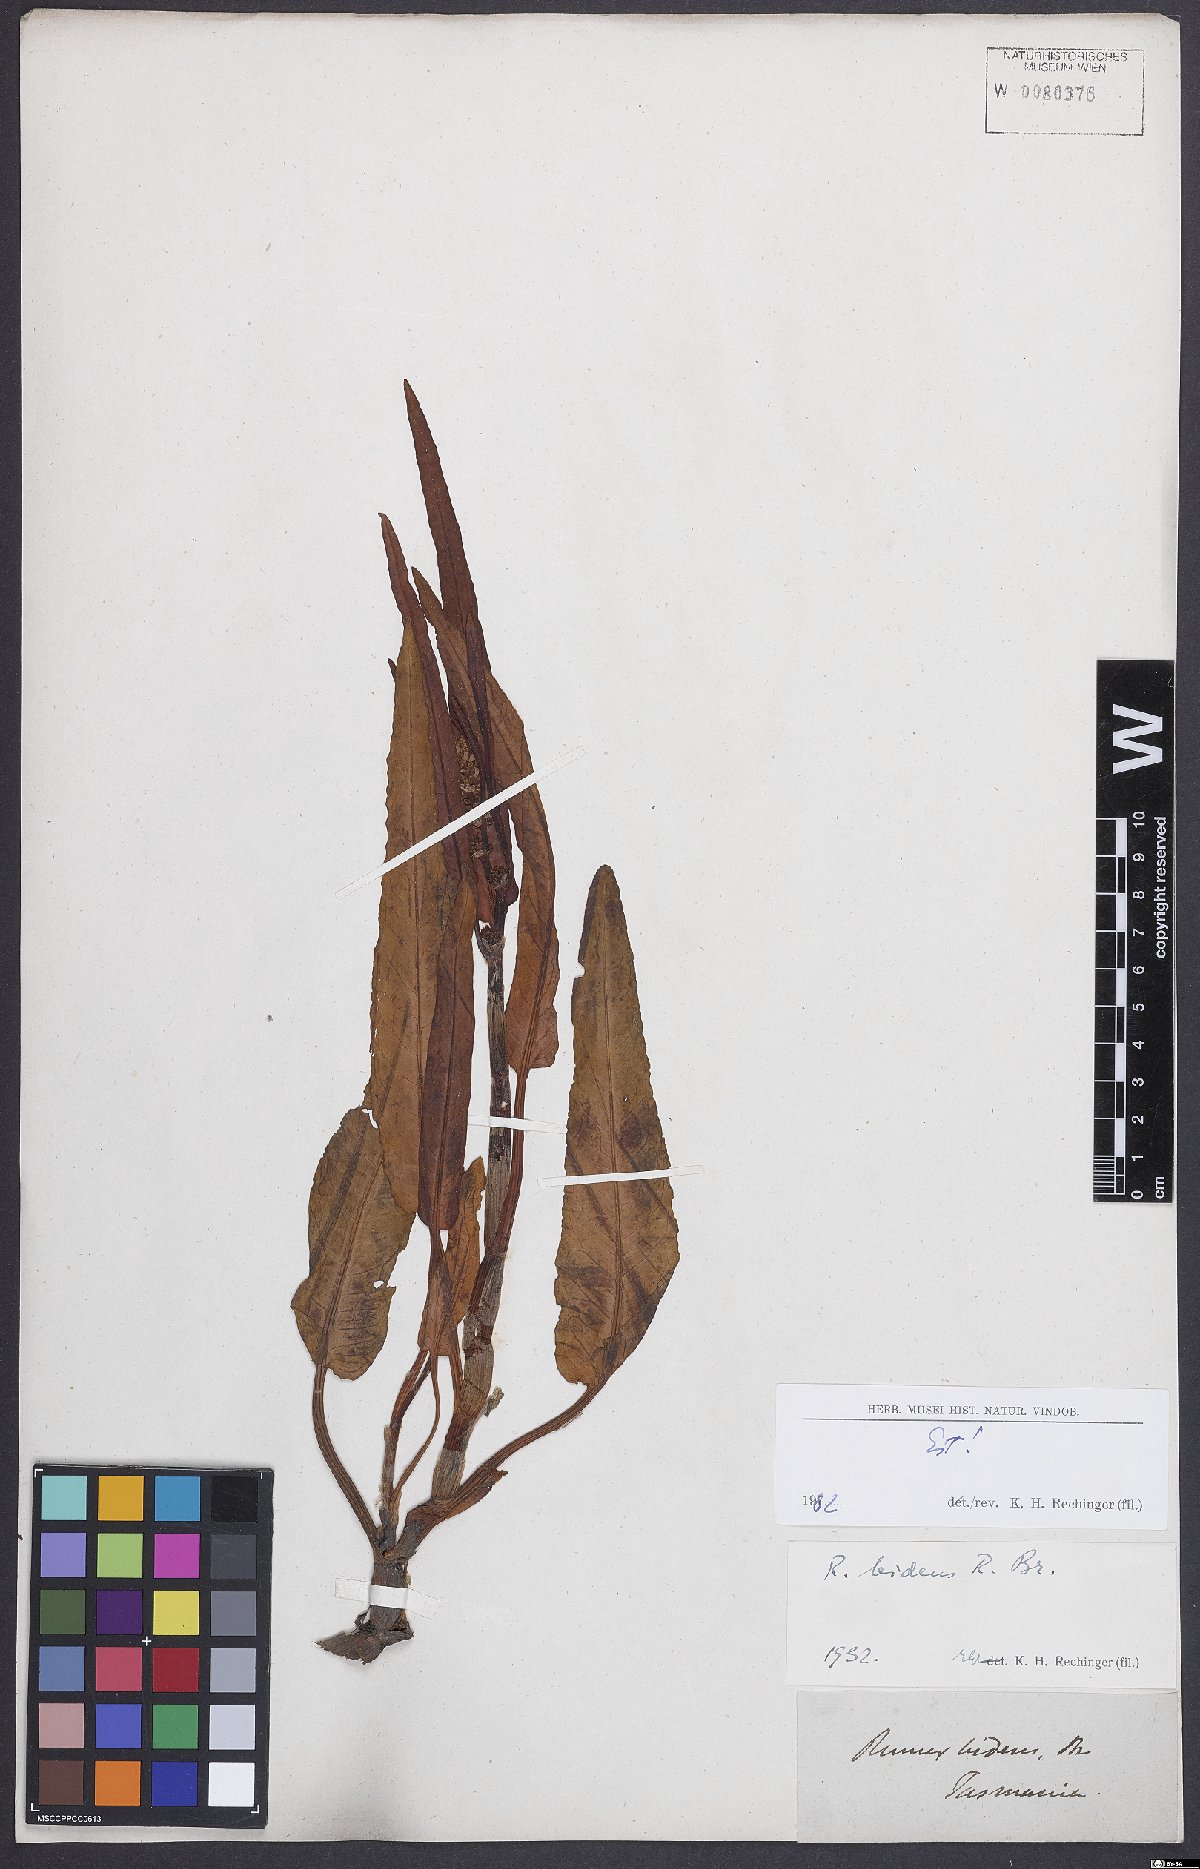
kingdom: Plantae
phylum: Tracheophyta
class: Magnoliopsida
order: Caryophyllales
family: Polygonaceae
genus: Rumex
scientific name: Rumex
